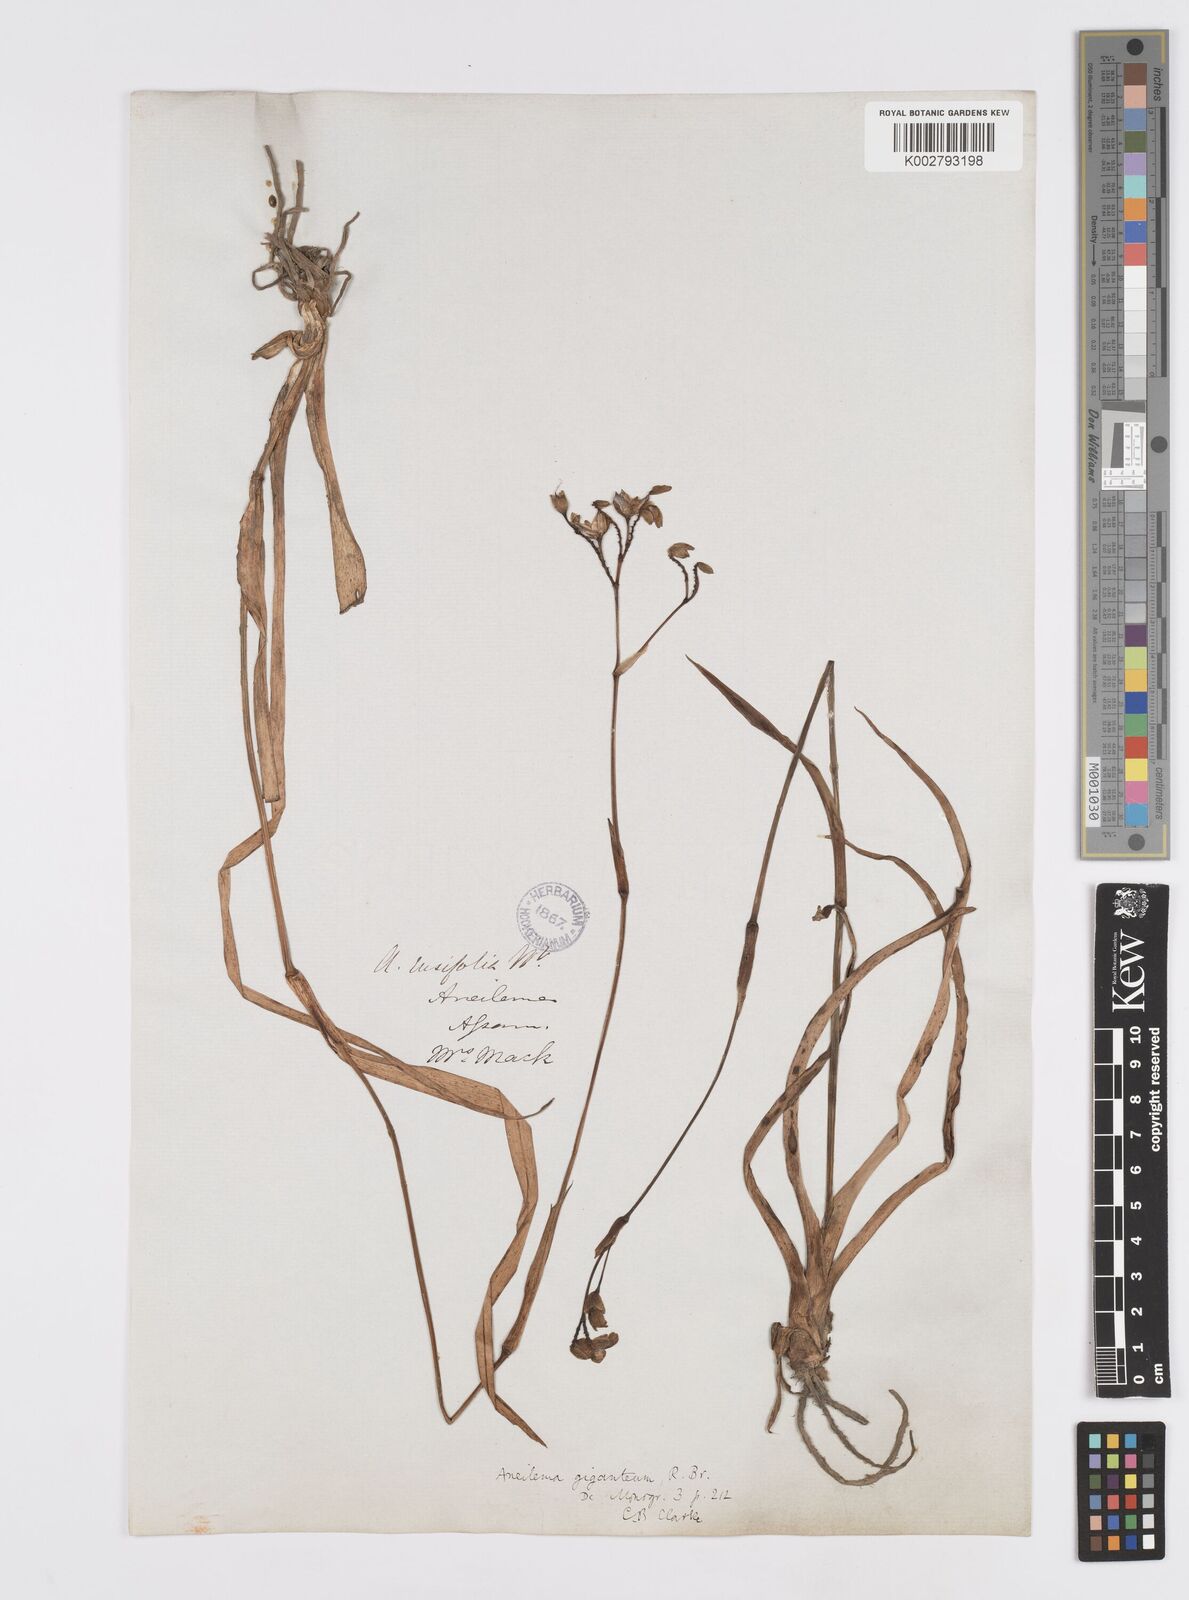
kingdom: Plantae
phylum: Tracheophyta
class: Liliopsida
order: Commelinales
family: Commelinaceae
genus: Murdannia
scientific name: Murdannia simplex
